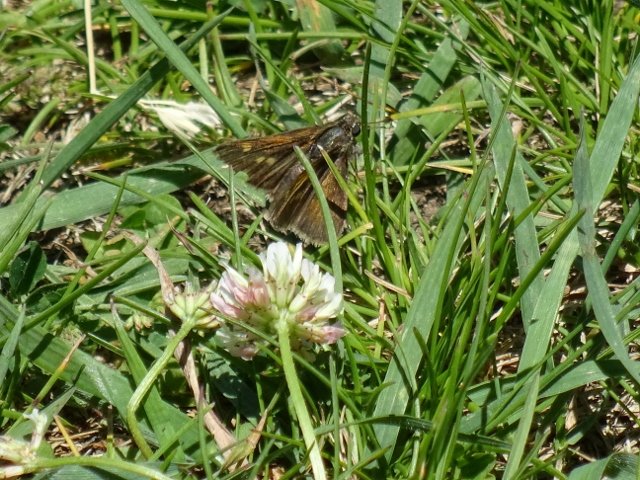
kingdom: Animalia
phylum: Arthropoda
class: Insecta
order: Lepidoptera
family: Hesperiidae
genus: Polites
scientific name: Polites themistocles
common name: Tawny-edged Skipper
